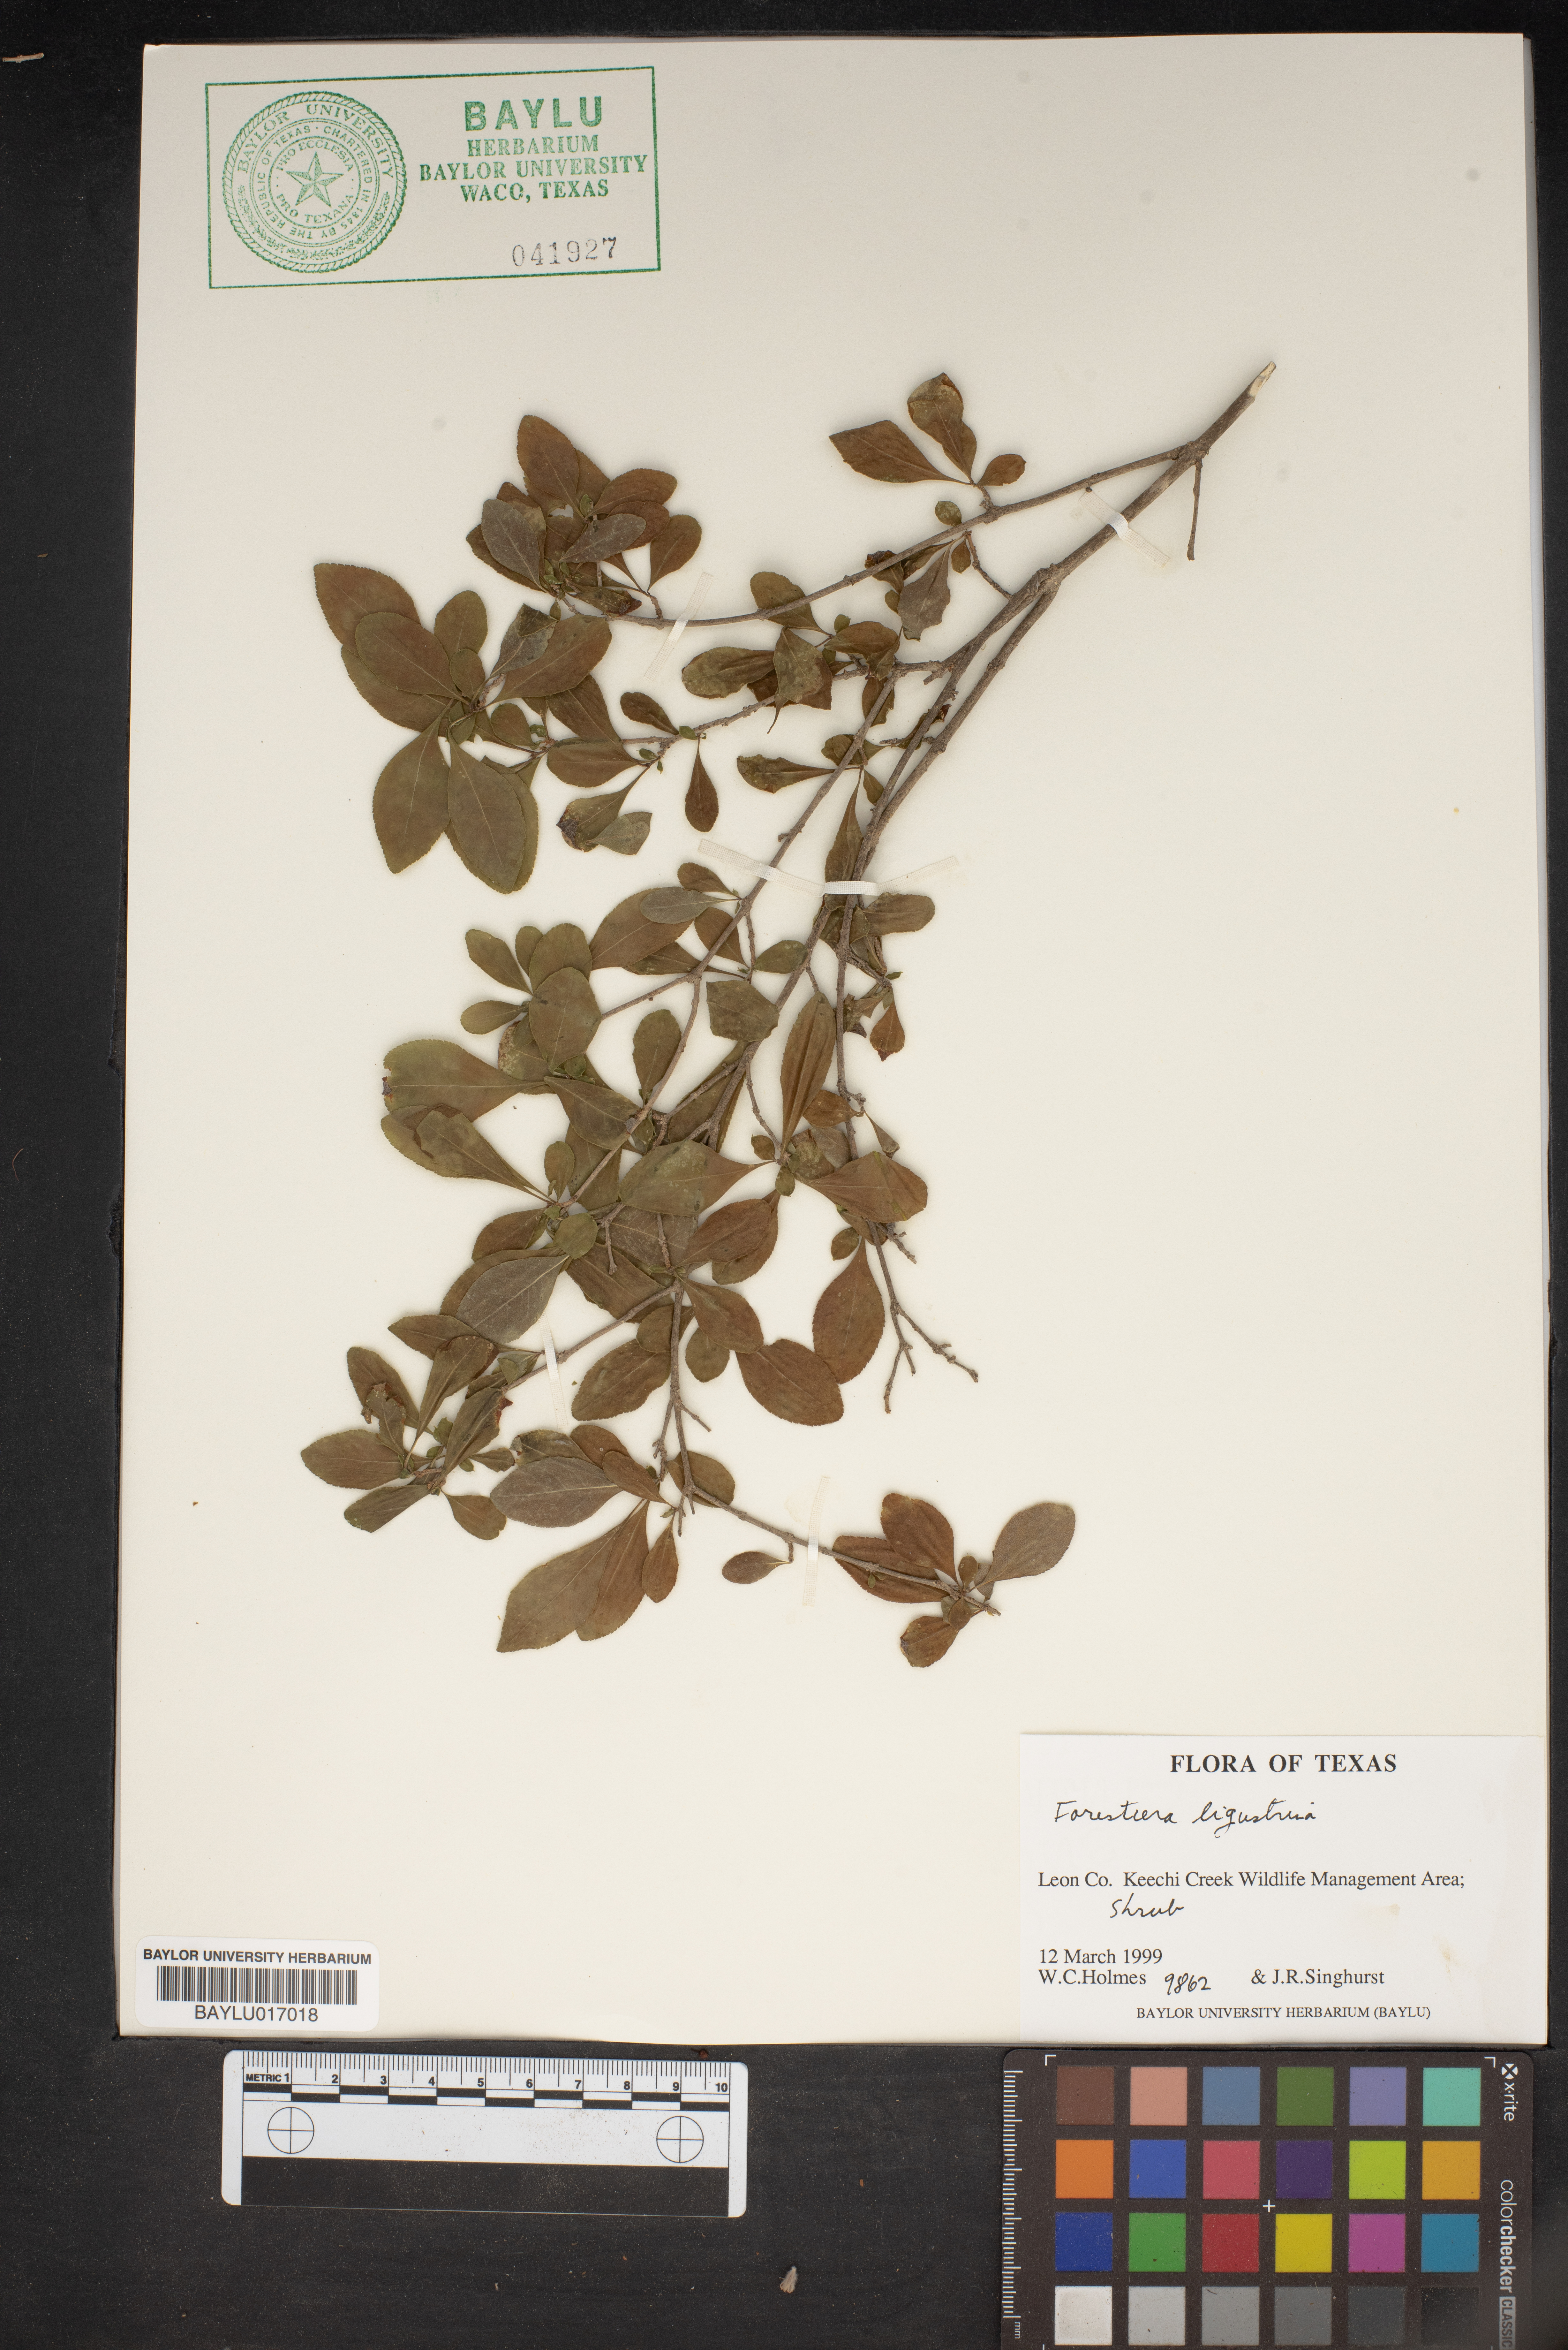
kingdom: Plantae
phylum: Tracheophyta
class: Magnoliopsida
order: Lamiales
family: Oleaceae
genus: Forestiera
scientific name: Forestiera ligustrina
